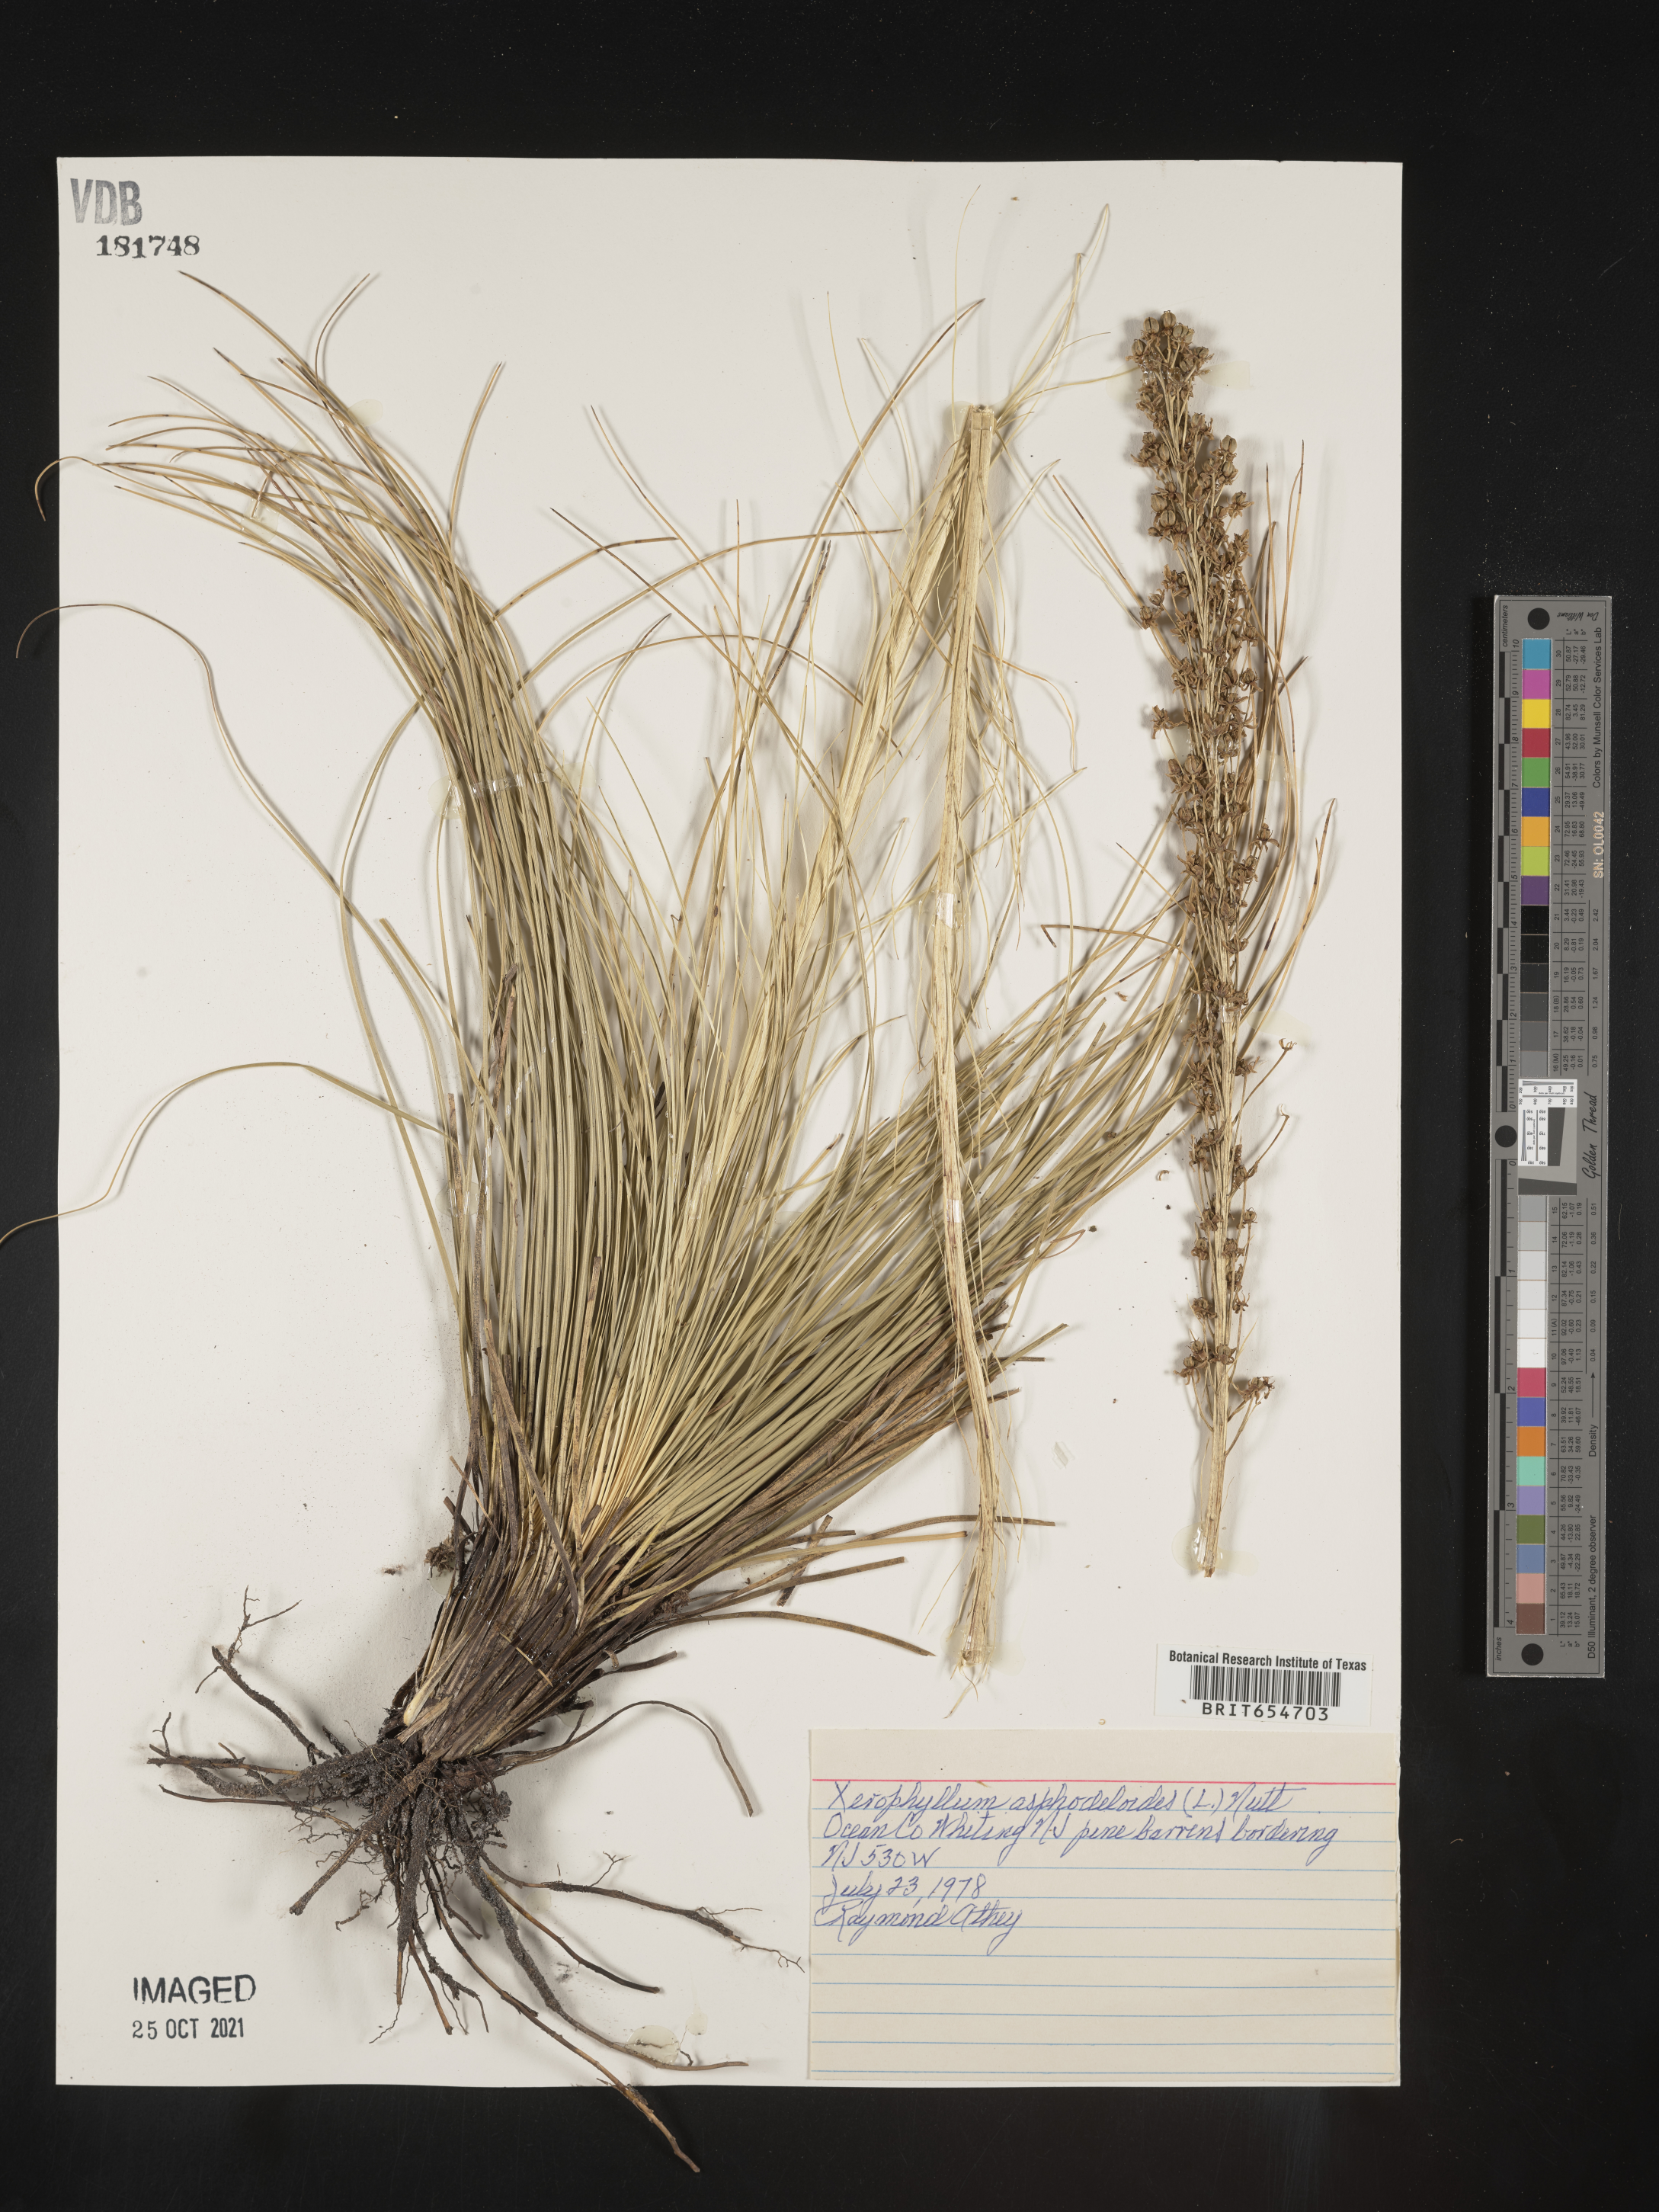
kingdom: Plantae
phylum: Tracheophyta
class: Liliopsida
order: Liliales
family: Melanthiaceae
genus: Xerophyllum
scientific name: Xerophyllum
